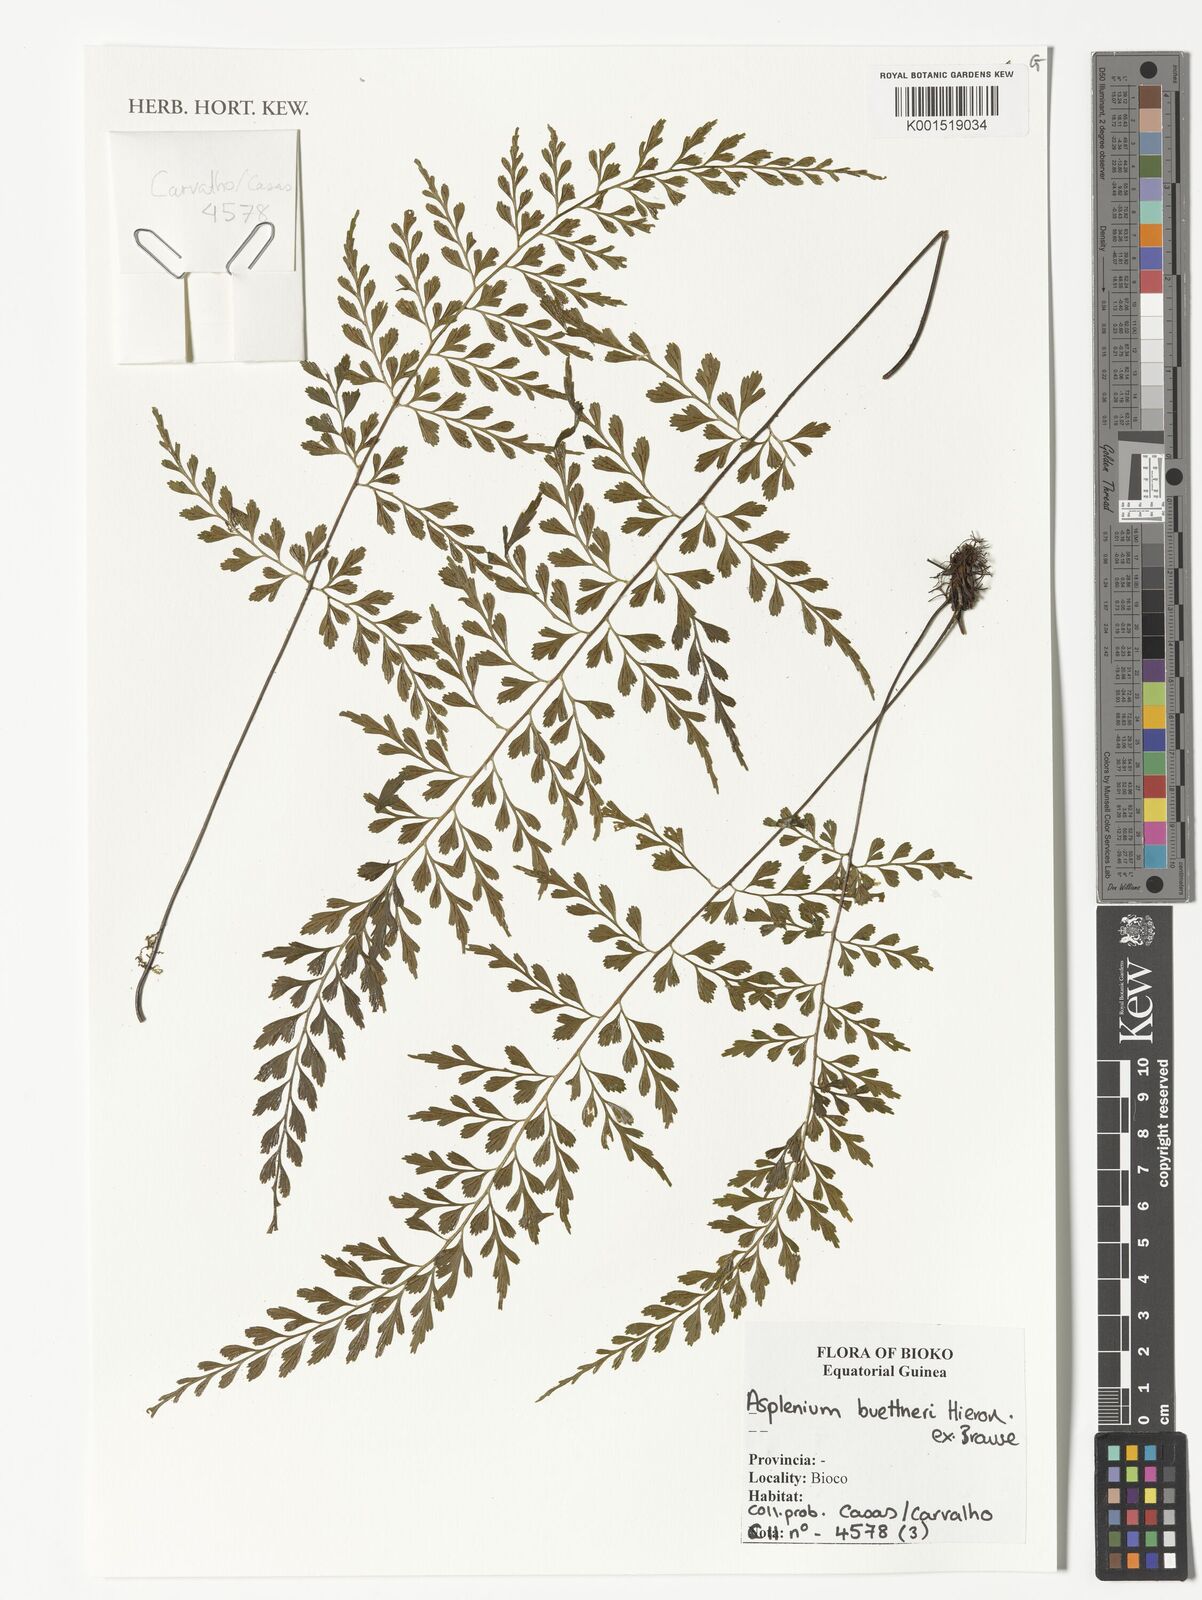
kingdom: Plantae
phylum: Tracheophyta
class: Polypodiopsida
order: Polypodiales
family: Aspleniaceae
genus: Asplenium
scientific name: Asplenium buettneri
